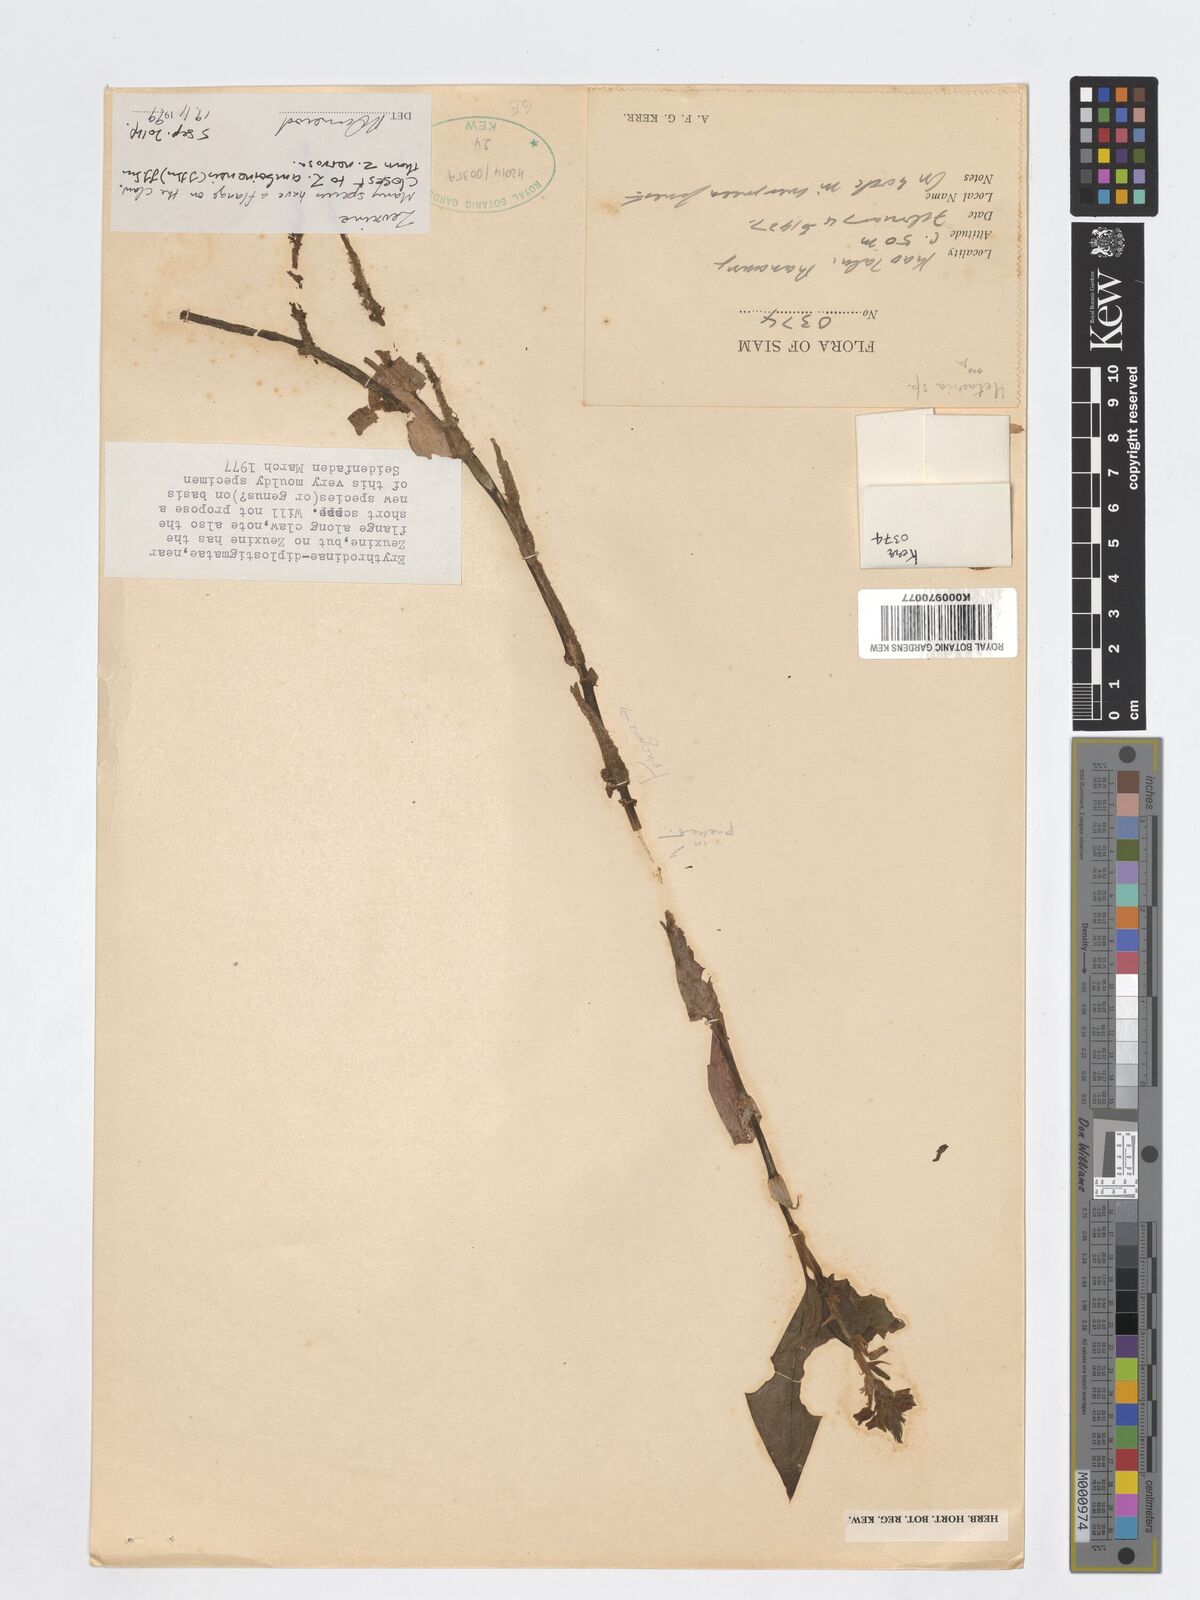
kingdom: Plantae
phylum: Tracheophyta
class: Liliopsida
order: Asparagales
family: Orchidaceae
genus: Zeuxine
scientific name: Zeuxine amboinensis
